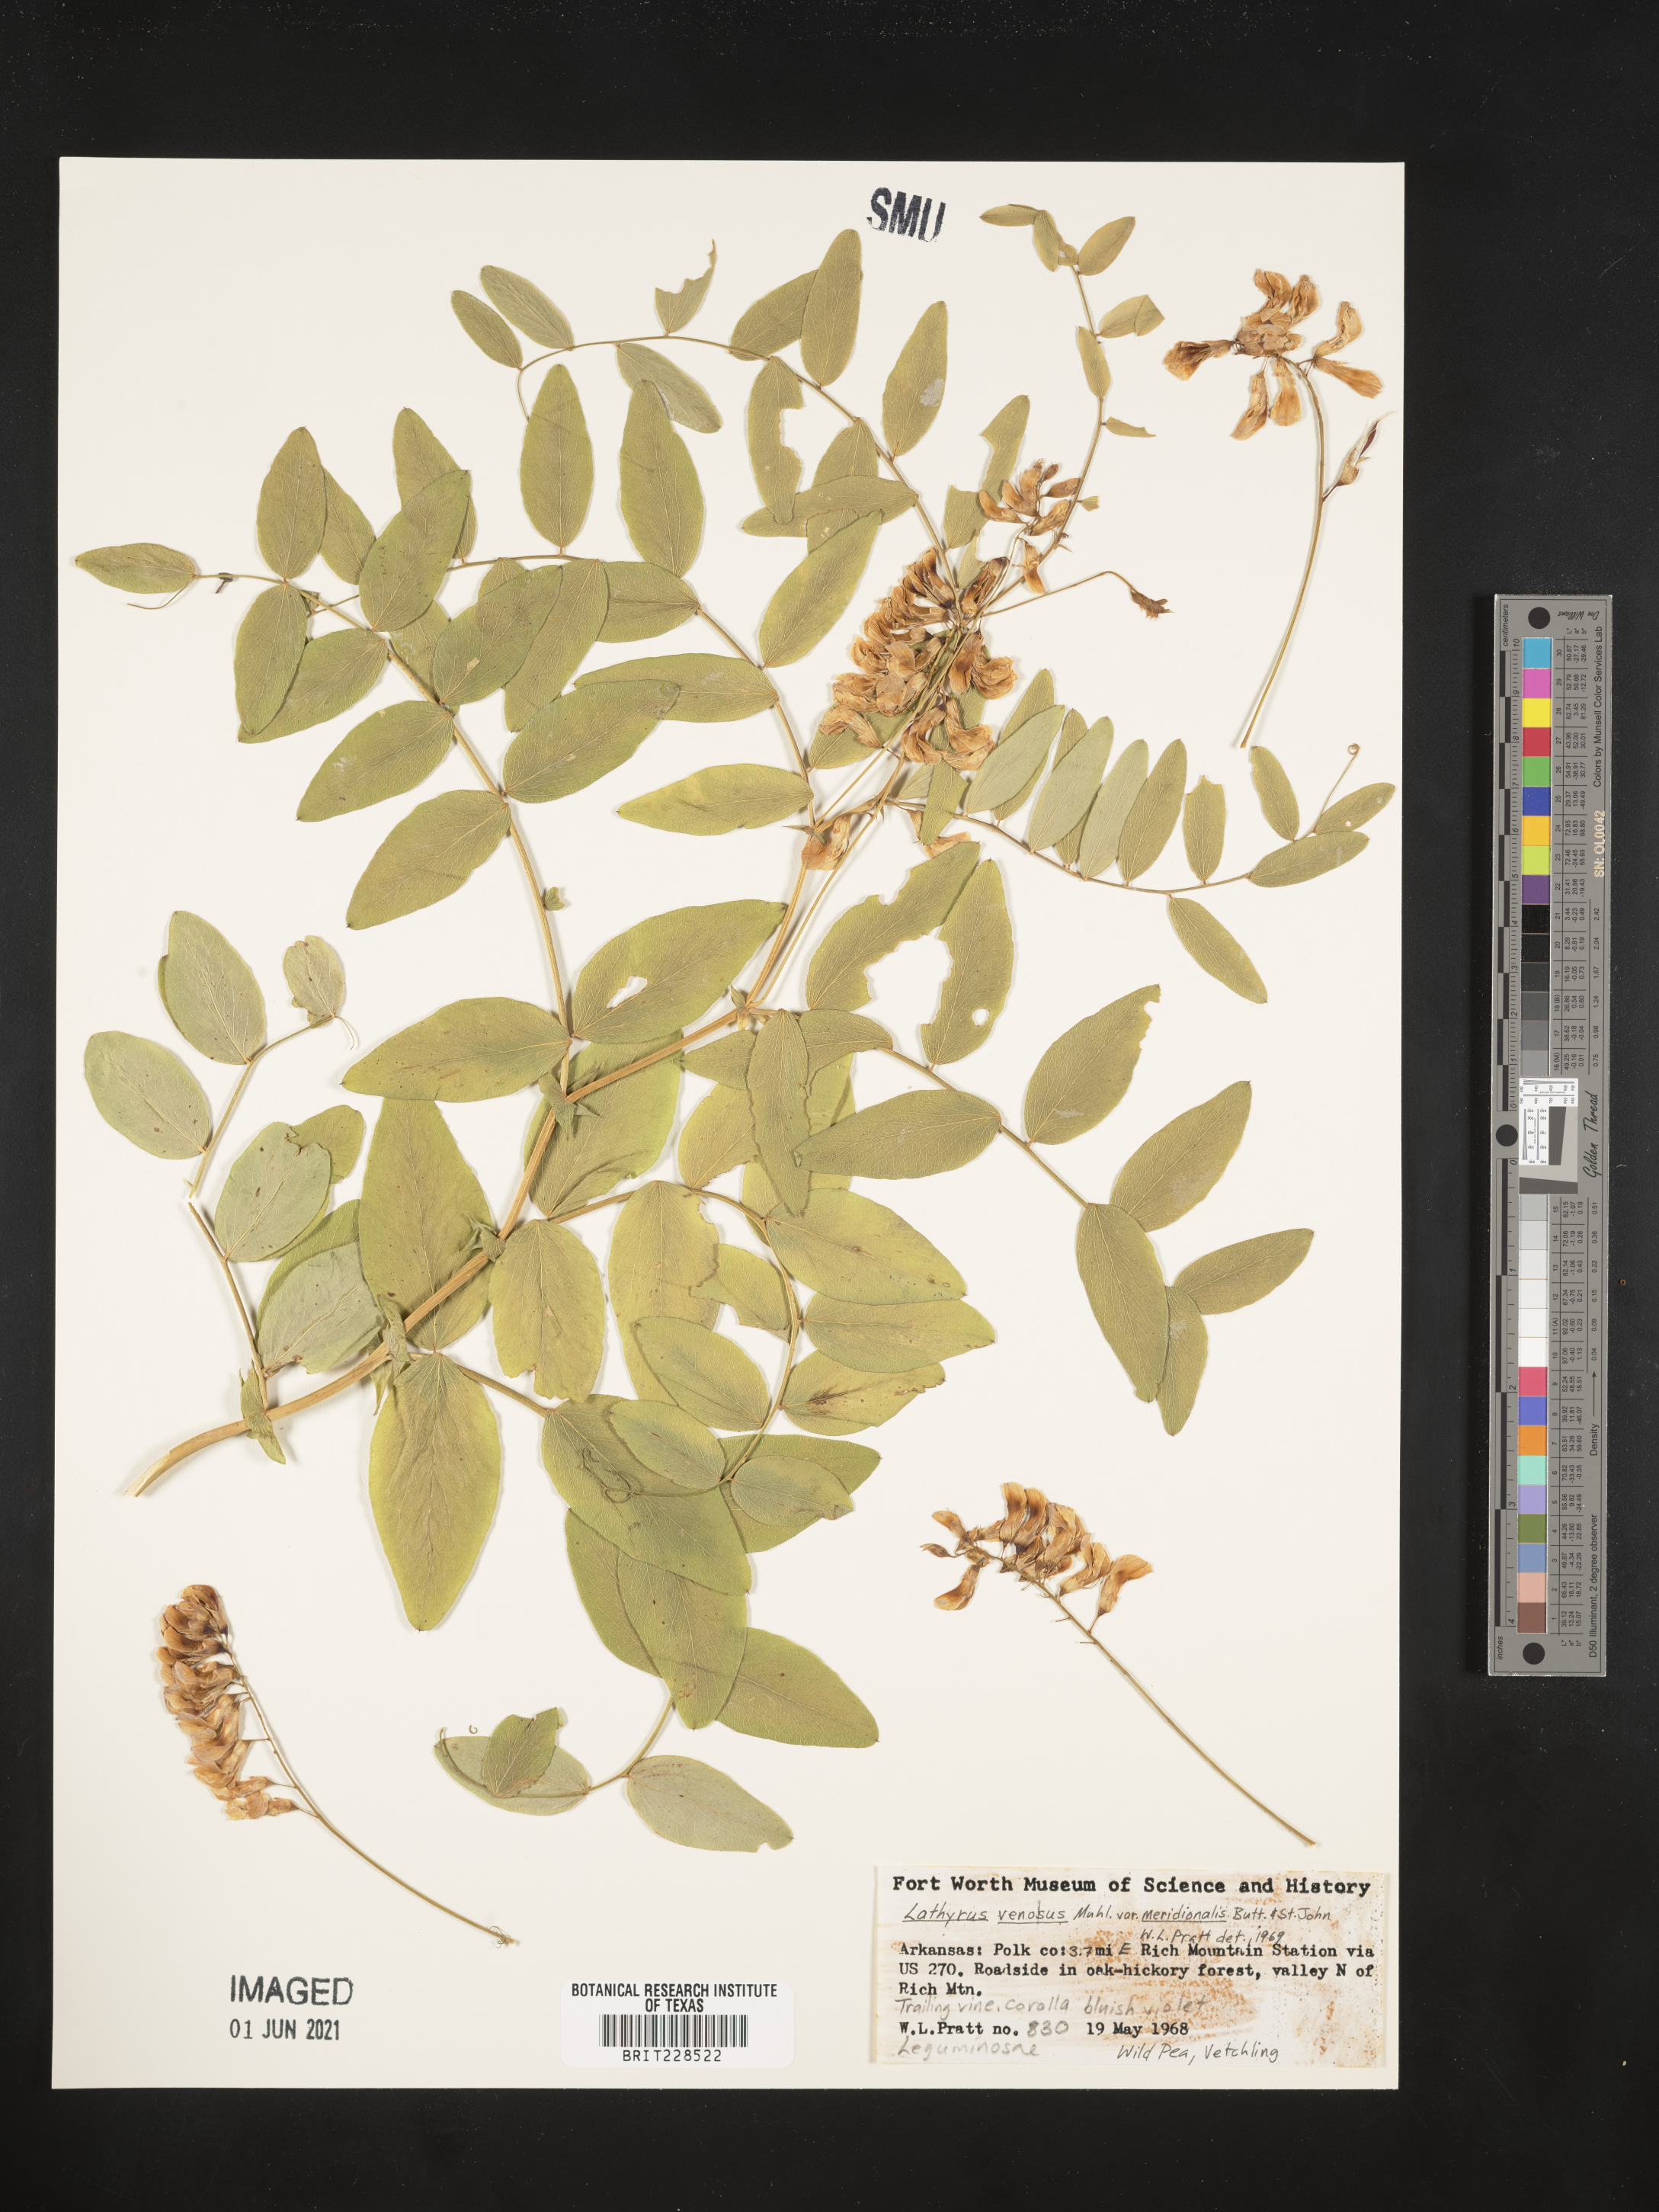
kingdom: Plantae
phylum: Tracheophyta
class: Magnoliopsida
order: Fabales
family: Fabaceae
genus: Lathyrus
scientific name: Lathyrus venosus
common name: Forest-pea
